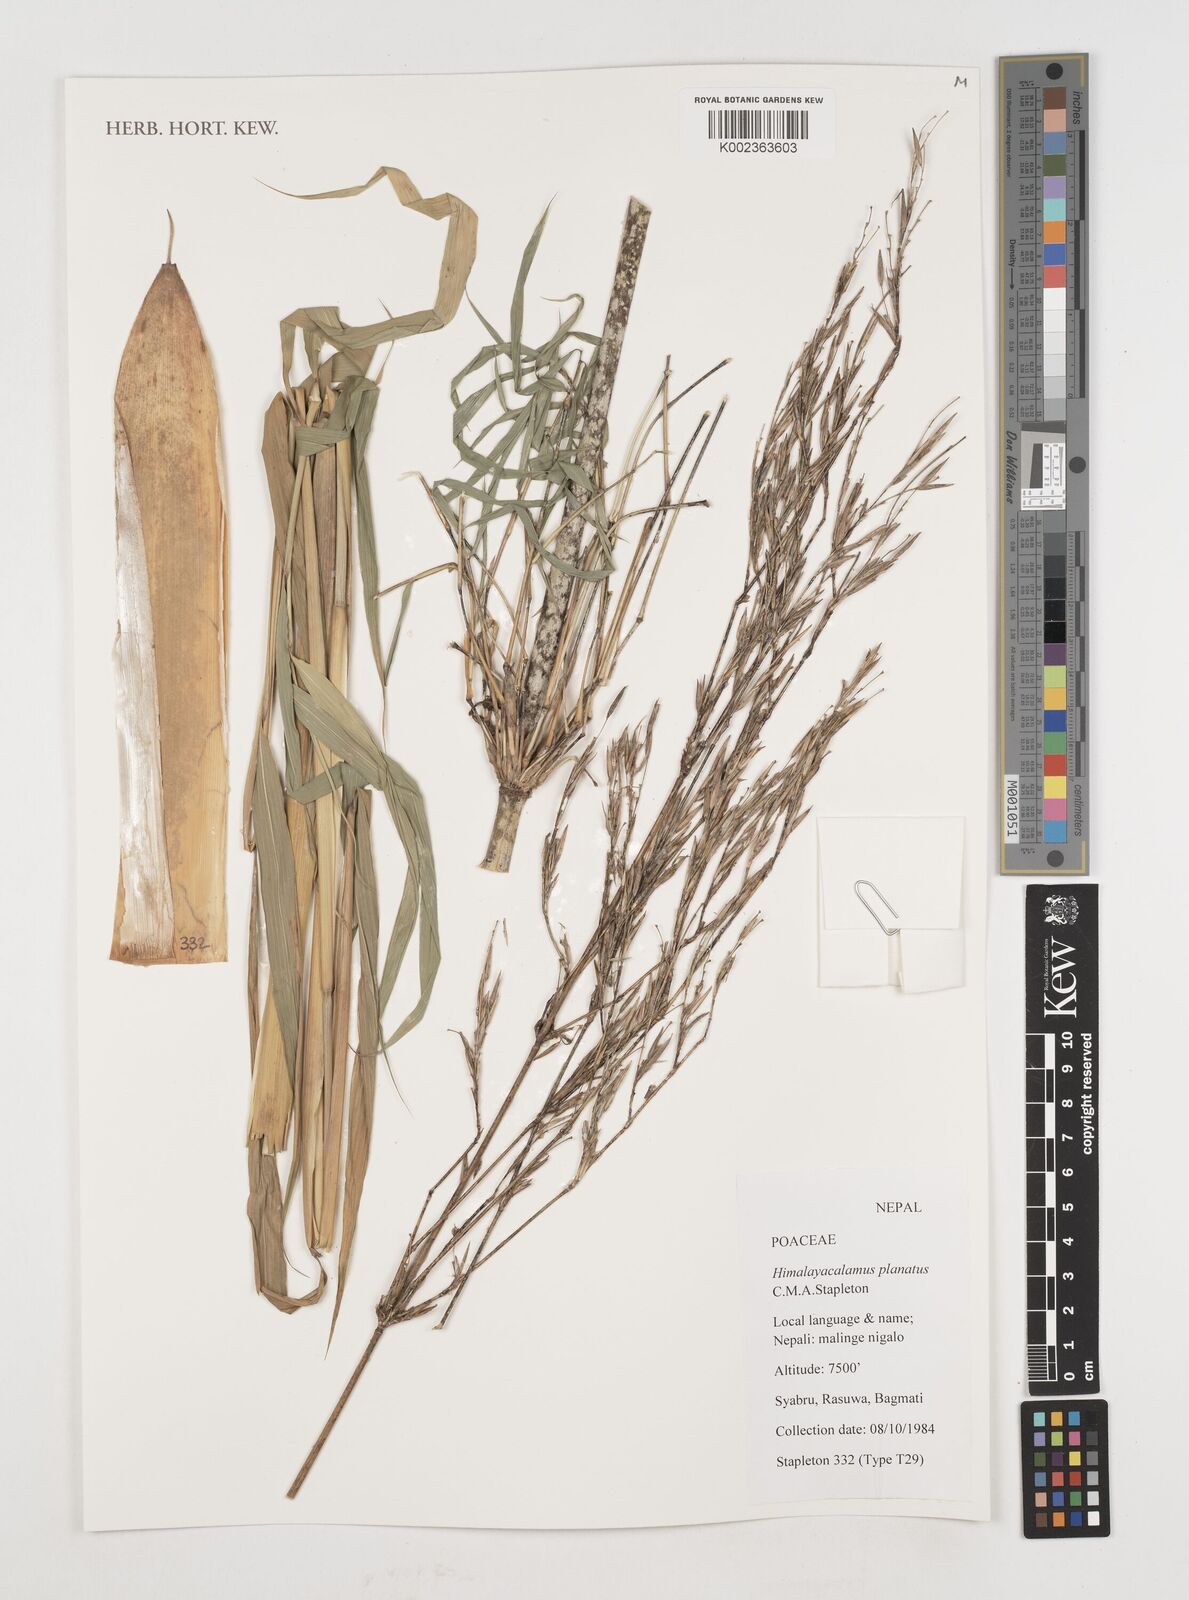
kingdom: Plantae
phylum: Tracheophyta
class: Liliopsida
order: Poales
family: Poaceae
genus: Himalayacalamus
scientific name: Himalayacalamus planatus
